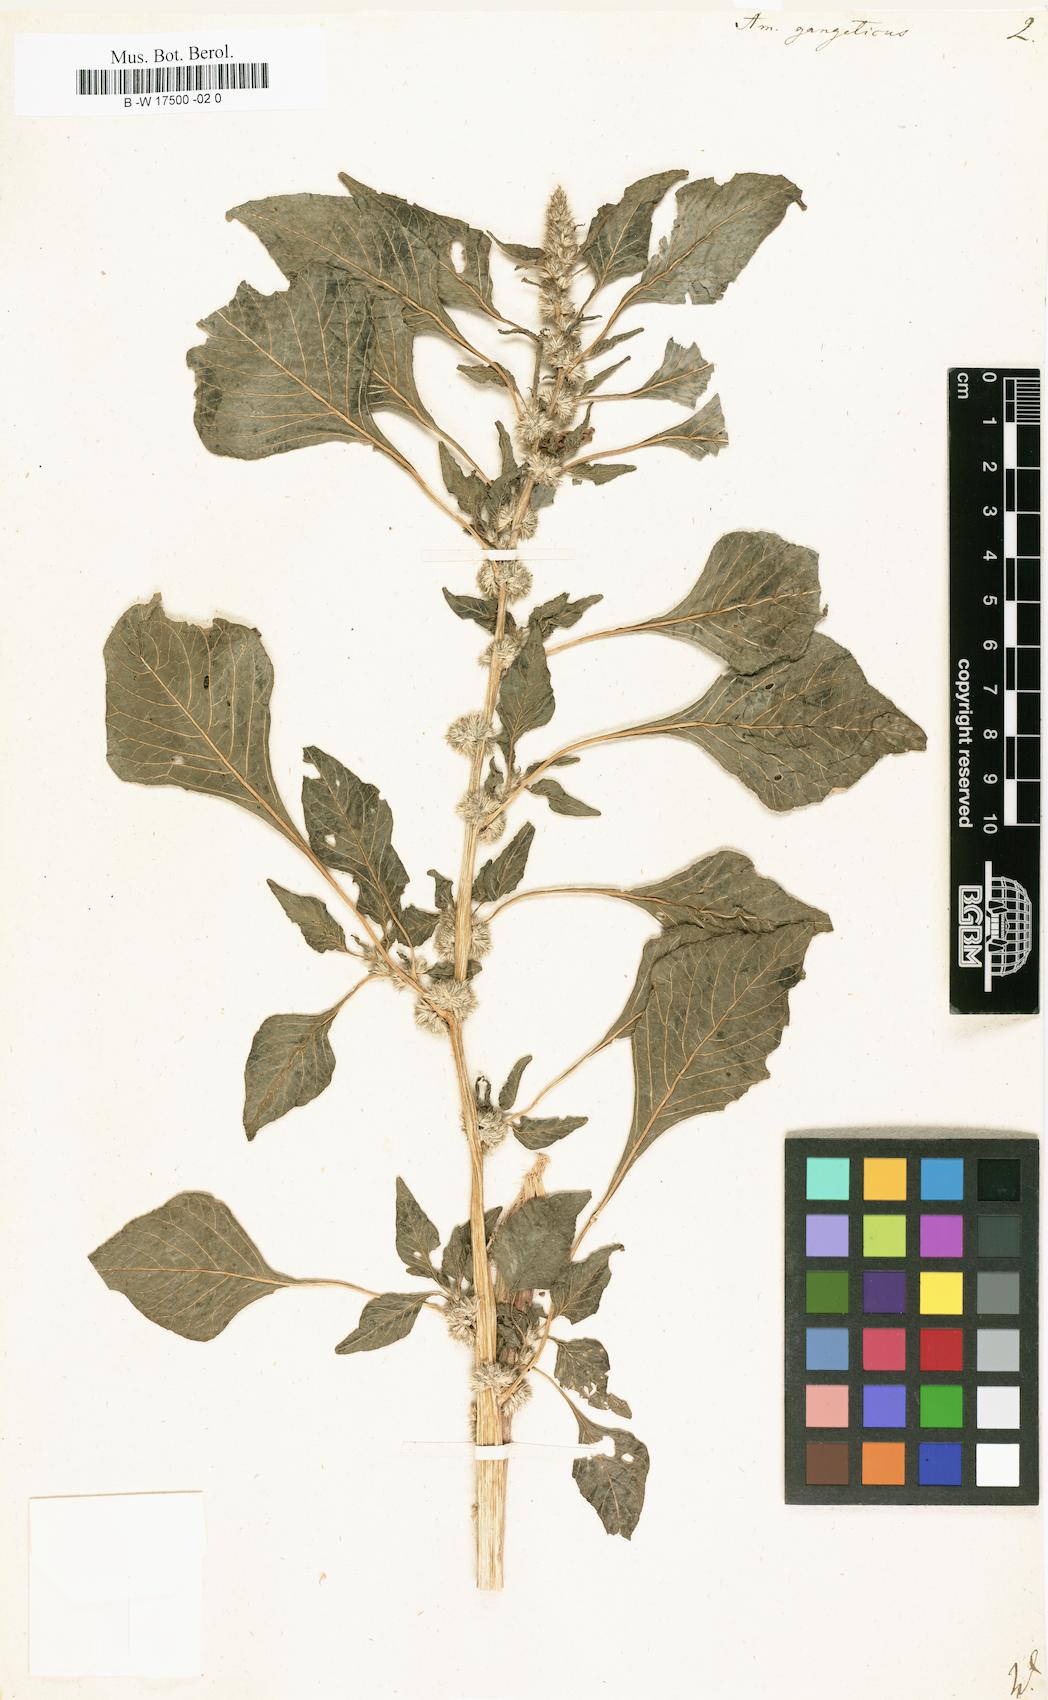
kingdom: Plantae
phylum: Tracheophyta
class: Magnoliopsida
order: Caryophyllales
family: Amaranthaceae
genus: Amaranthus
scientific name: Amaranthus tricolor
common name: Joseph's-coat
